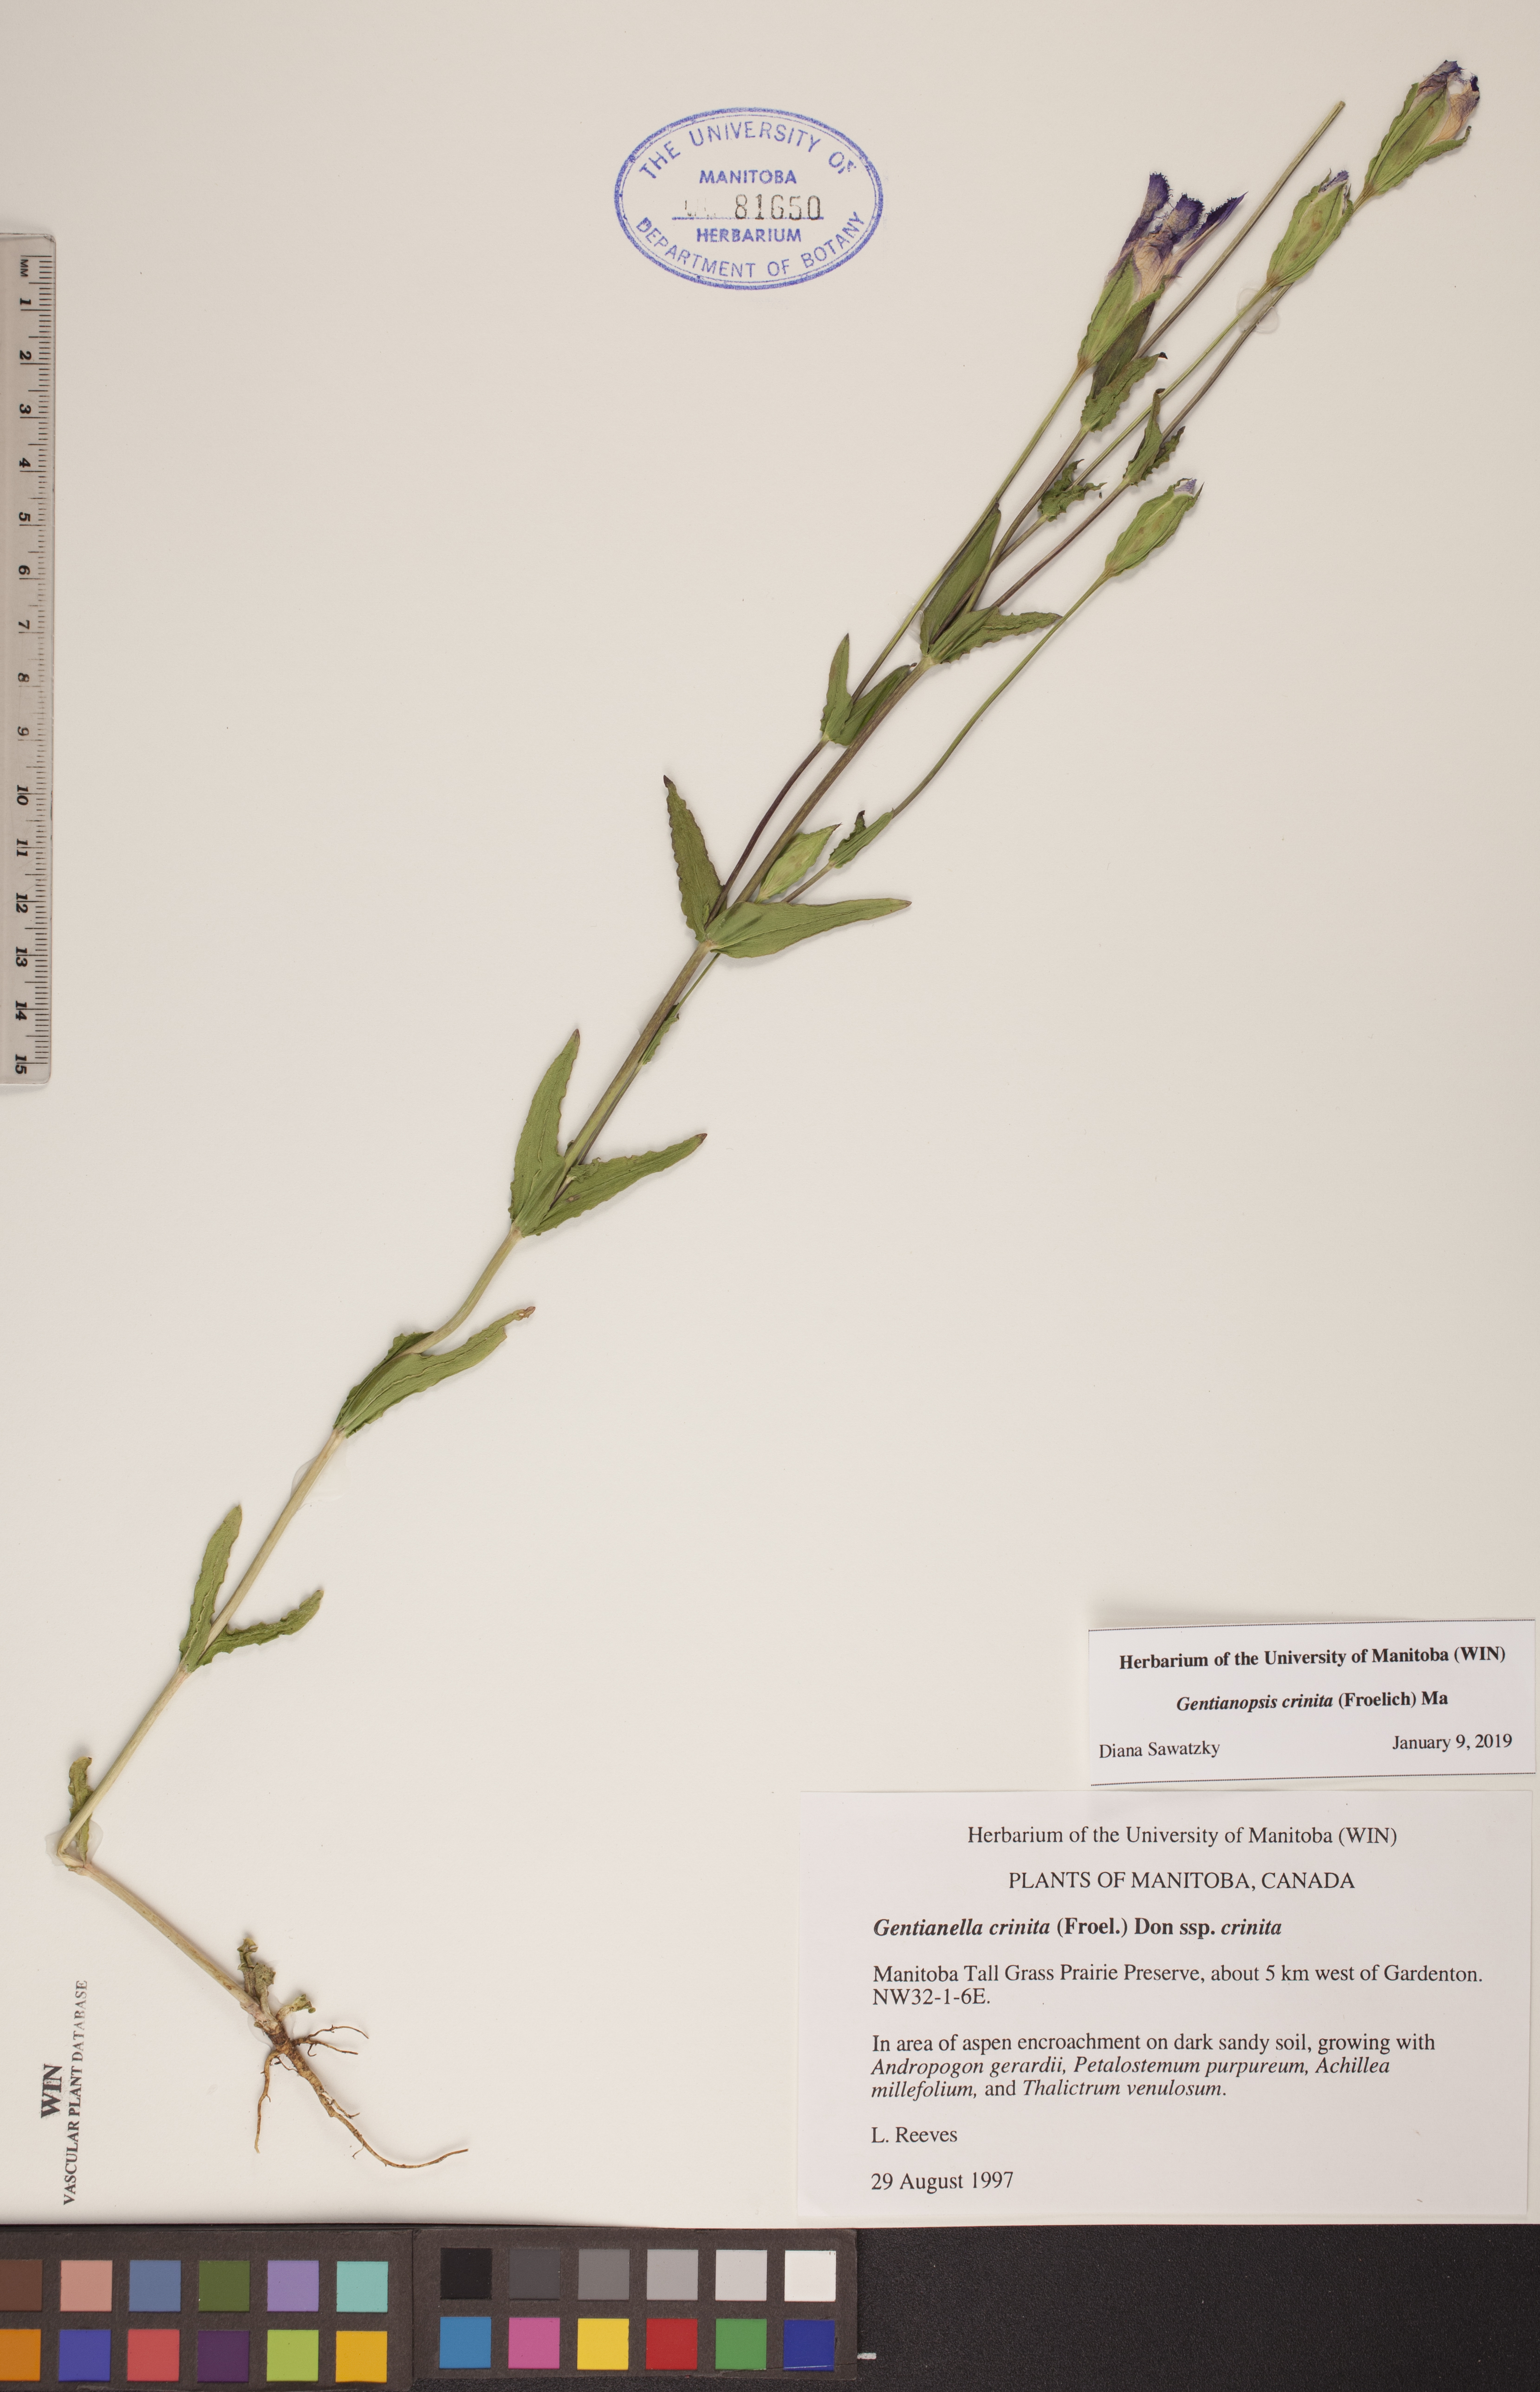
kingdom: Plantae
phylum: Tracheophyta
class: Magnoliopsida
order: Gentianales
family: Gentianaceae
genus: Gentianopsis
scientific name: Gentianopsis crinita
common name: Fringed-gentian
